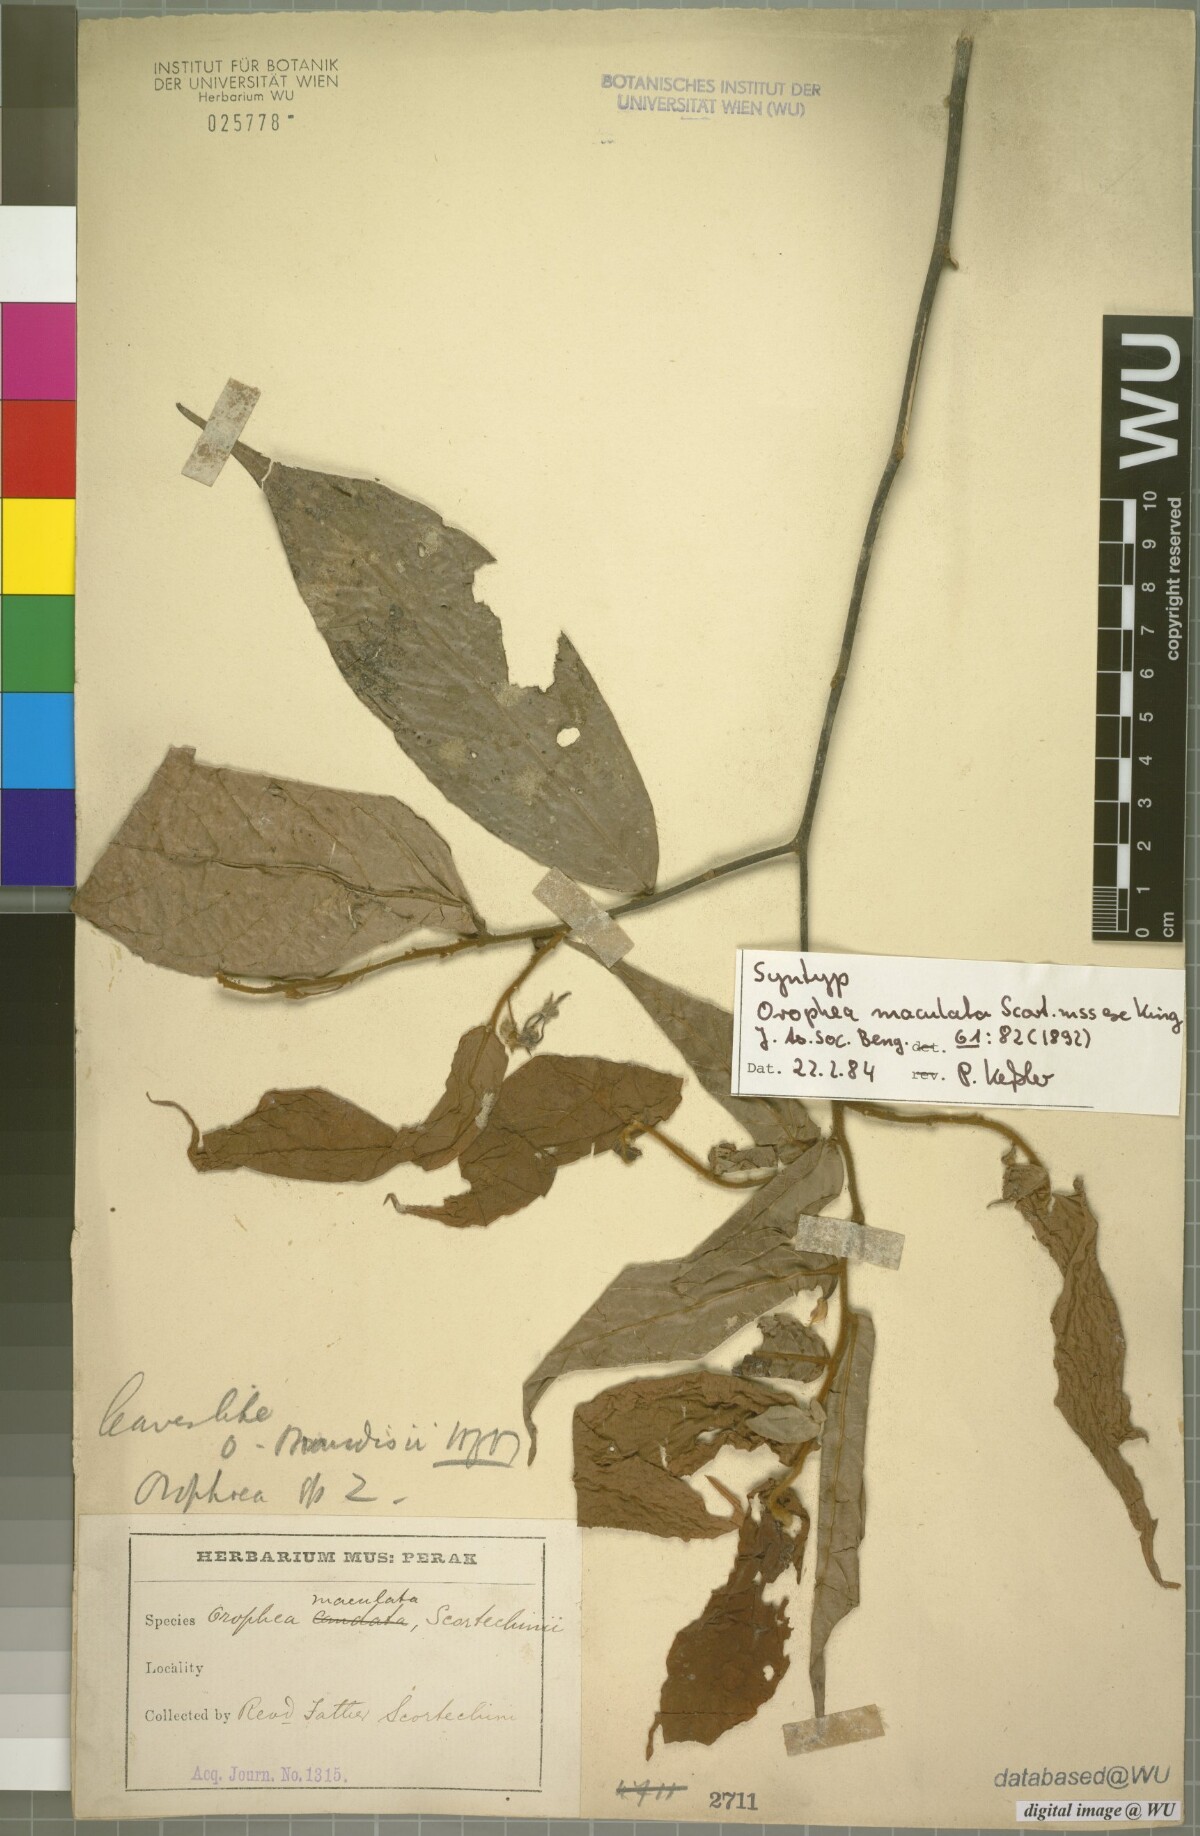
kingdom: Plantae
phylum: Tracheophyta
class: Magnoliopsida
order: Magnoliales
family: Annonaceae
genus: Orophea
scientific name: Orophea maculata
